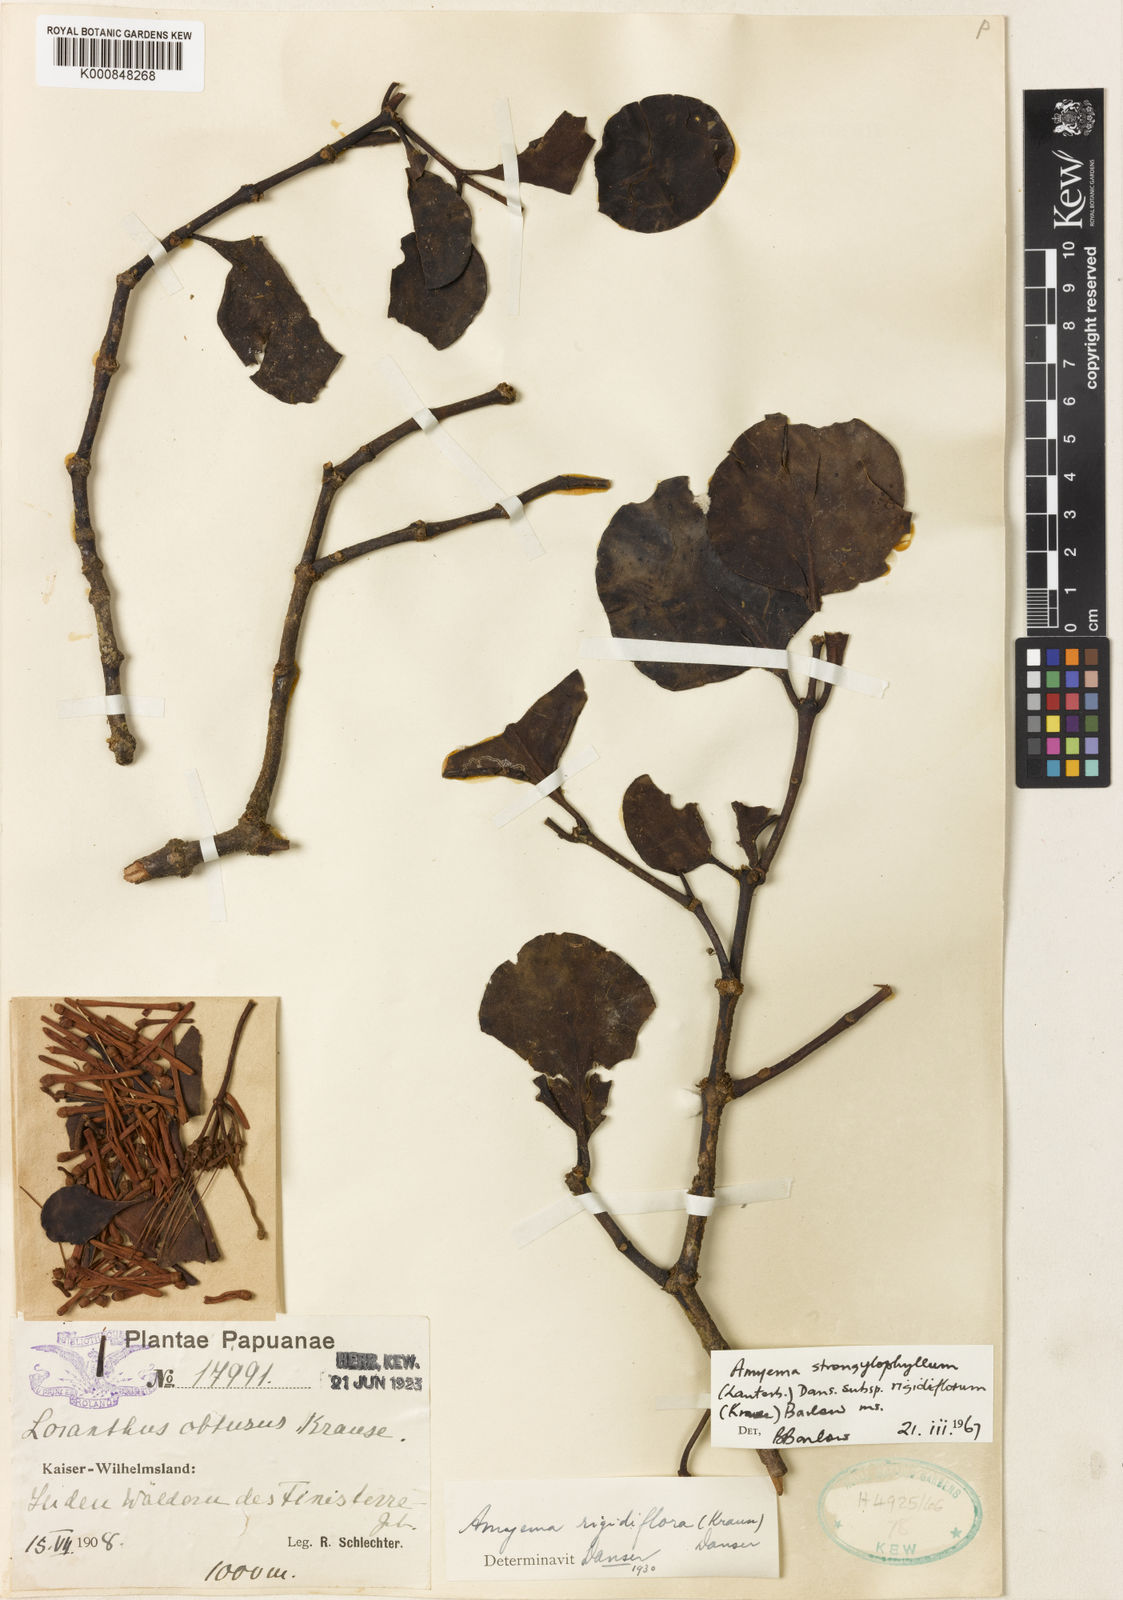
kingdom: Plantae
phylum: Tracheophyta
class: Magnoliopsida
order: Santalales
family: Loranthaceae
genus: Amyema
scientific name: Amyema rigidiflora
